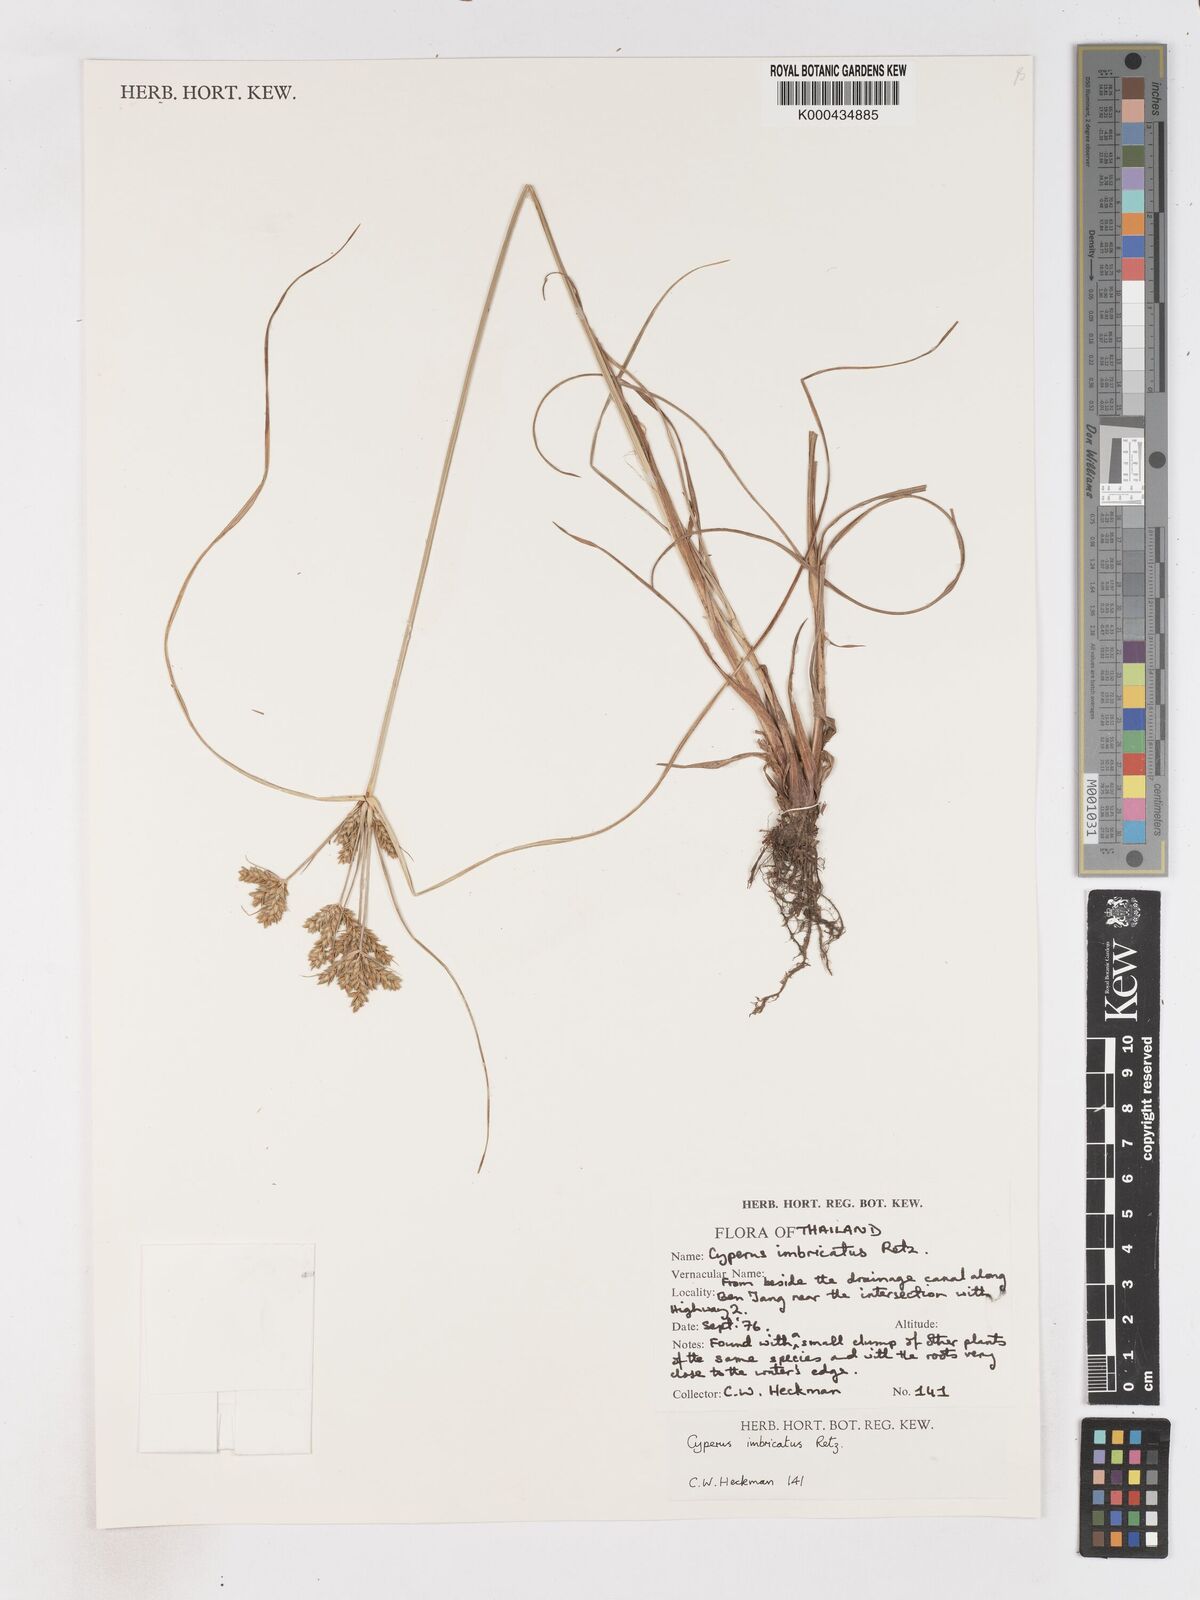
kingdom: Plantae
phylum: Tracheophyta
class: Liliopsida
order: Poales
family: Cyperaceae
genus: Cyperus
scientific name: Cyperus imbricatus
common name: Shingle flatsedge
